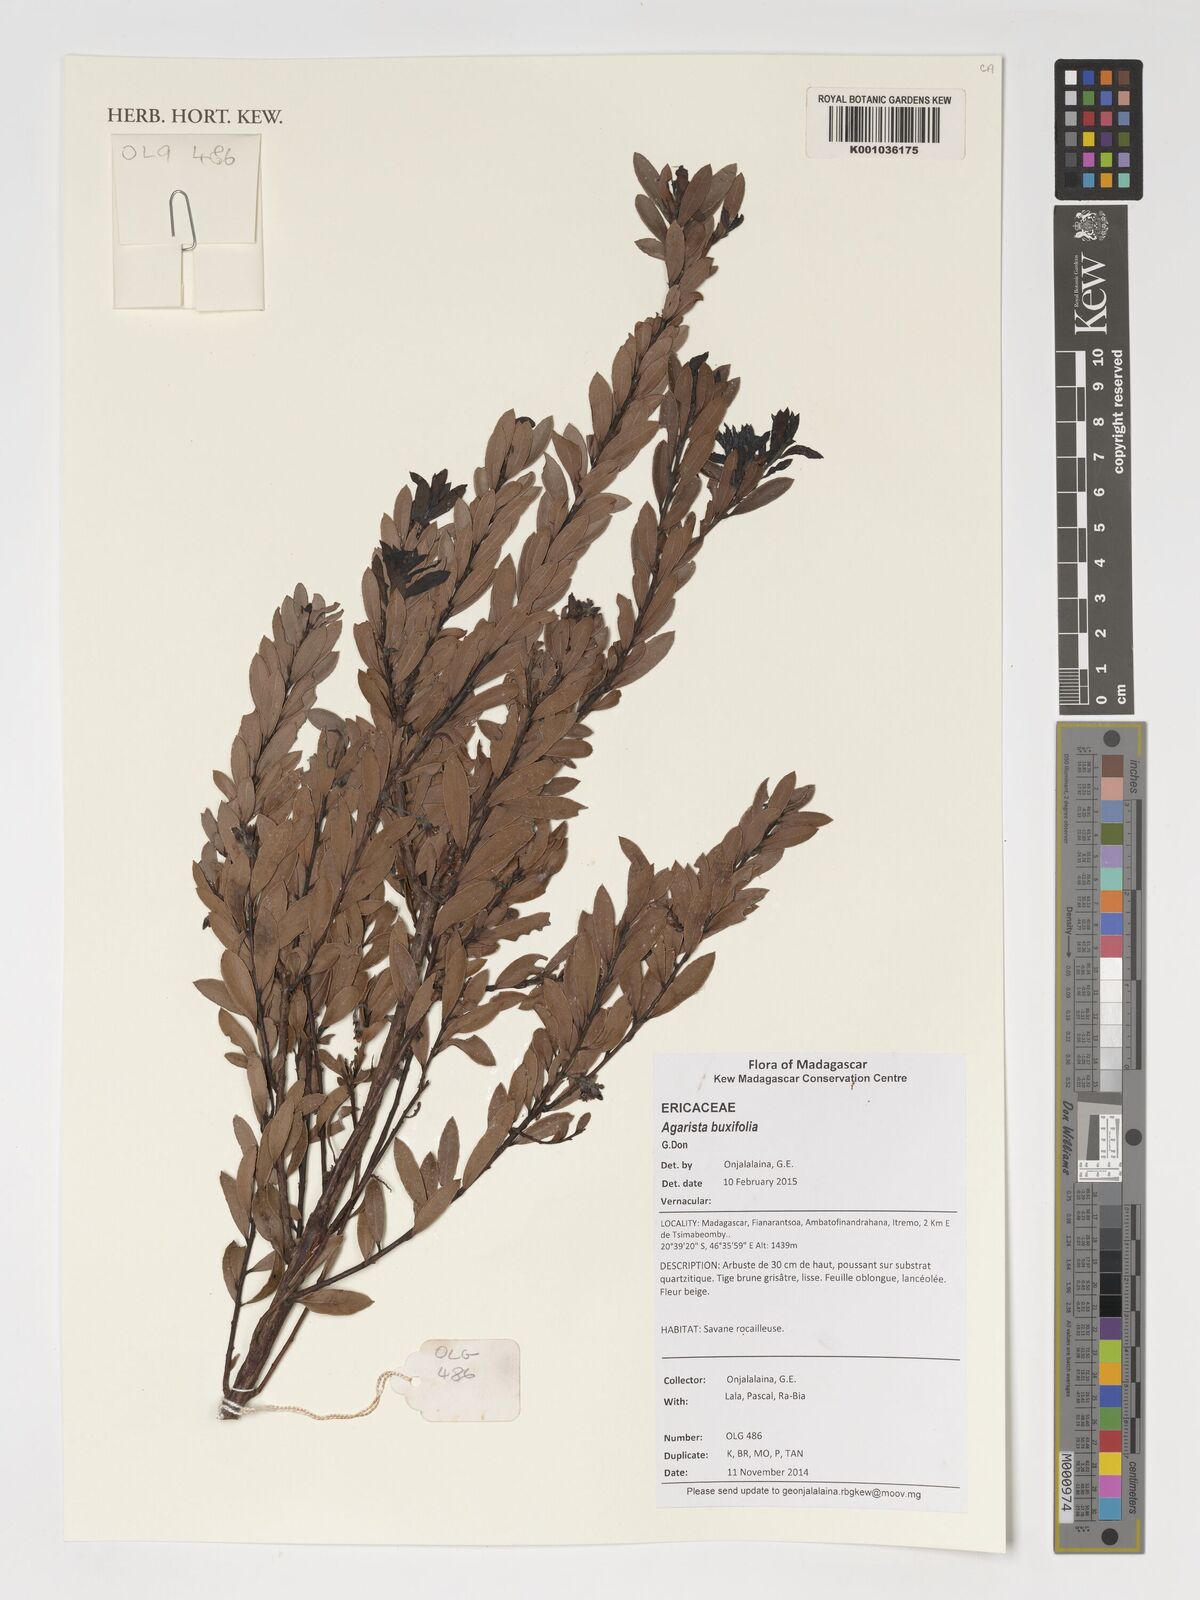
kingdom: Plantae
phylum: Tracheophyta
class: Magnoliopsida
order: Ericales
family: Ericaceae
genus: Agarista
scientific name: Agarista buxifolia
